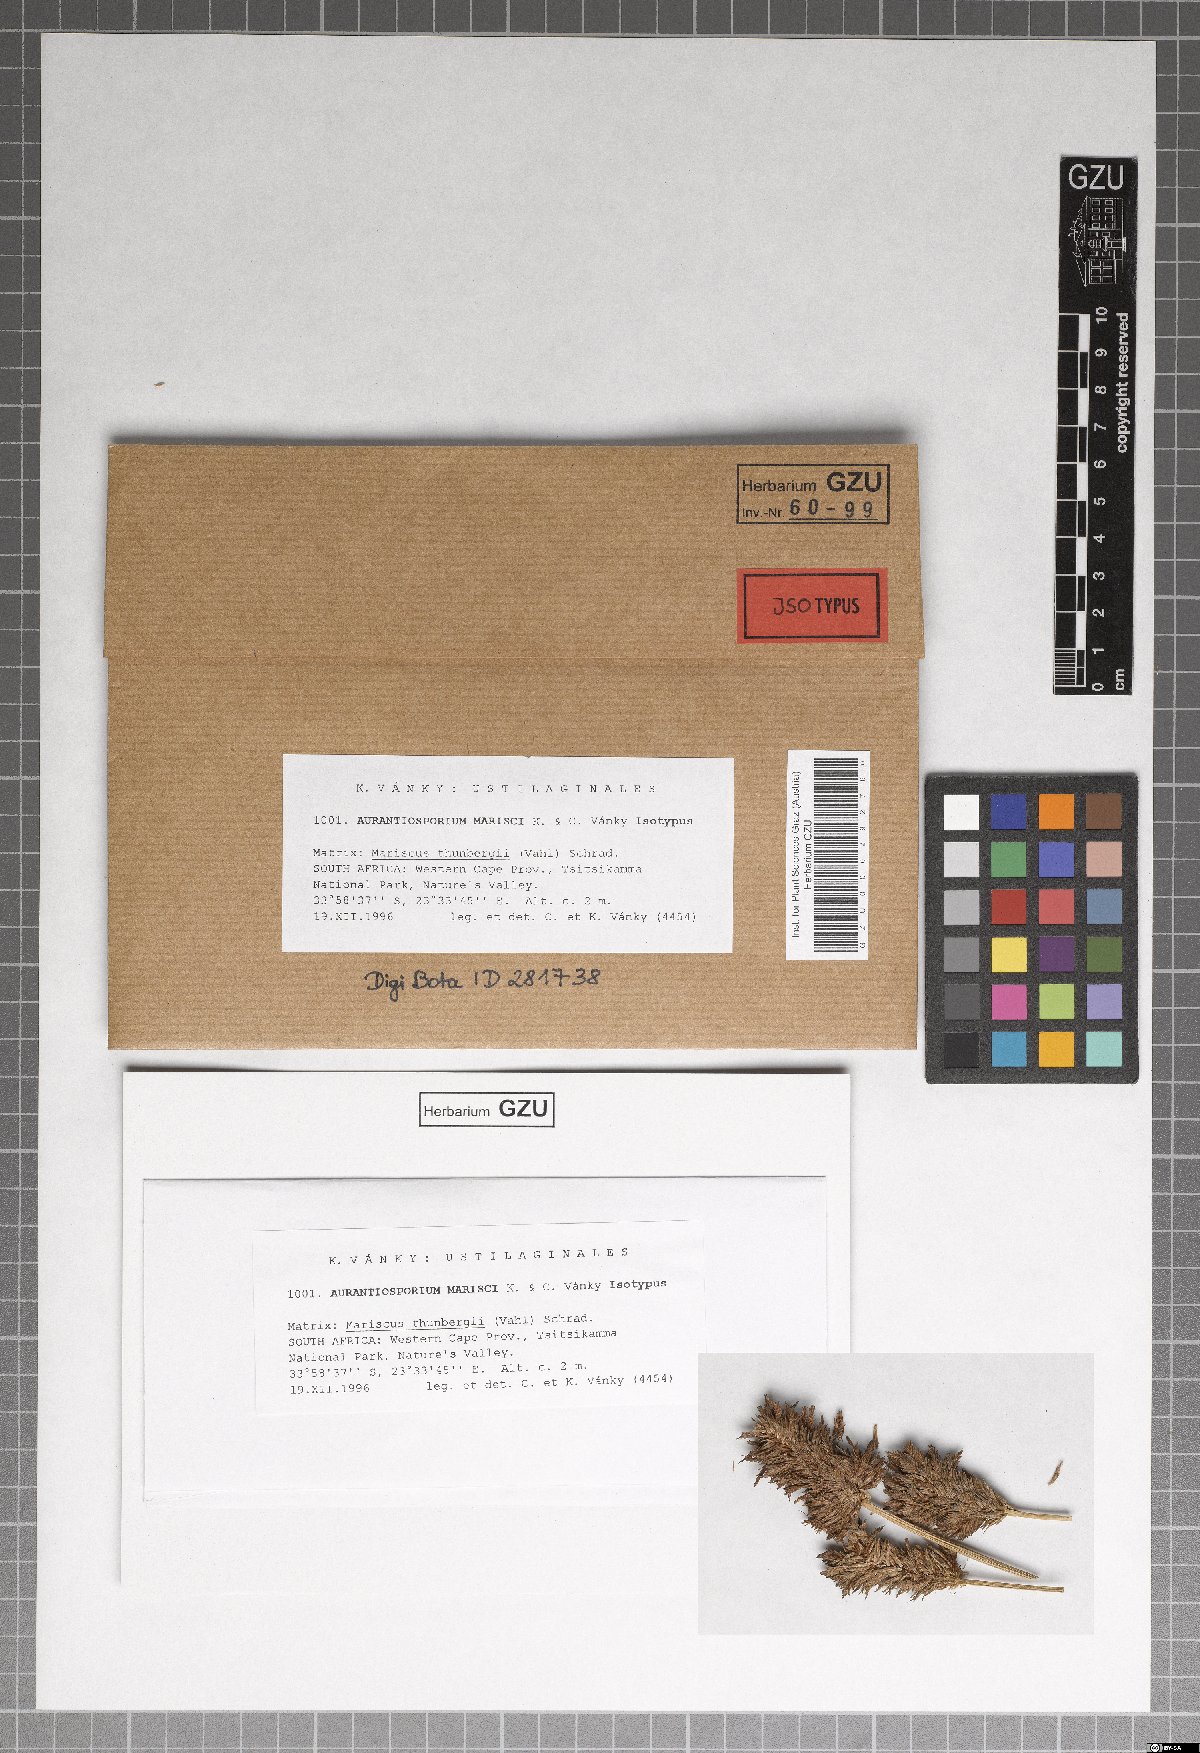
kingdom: Fungi
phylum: Basidiomycota
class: Microbotryomycetes
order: Microbotryales
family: Ustilentylomataceae
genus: Aurantiosporium
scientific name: Aurantiosporium marisci
